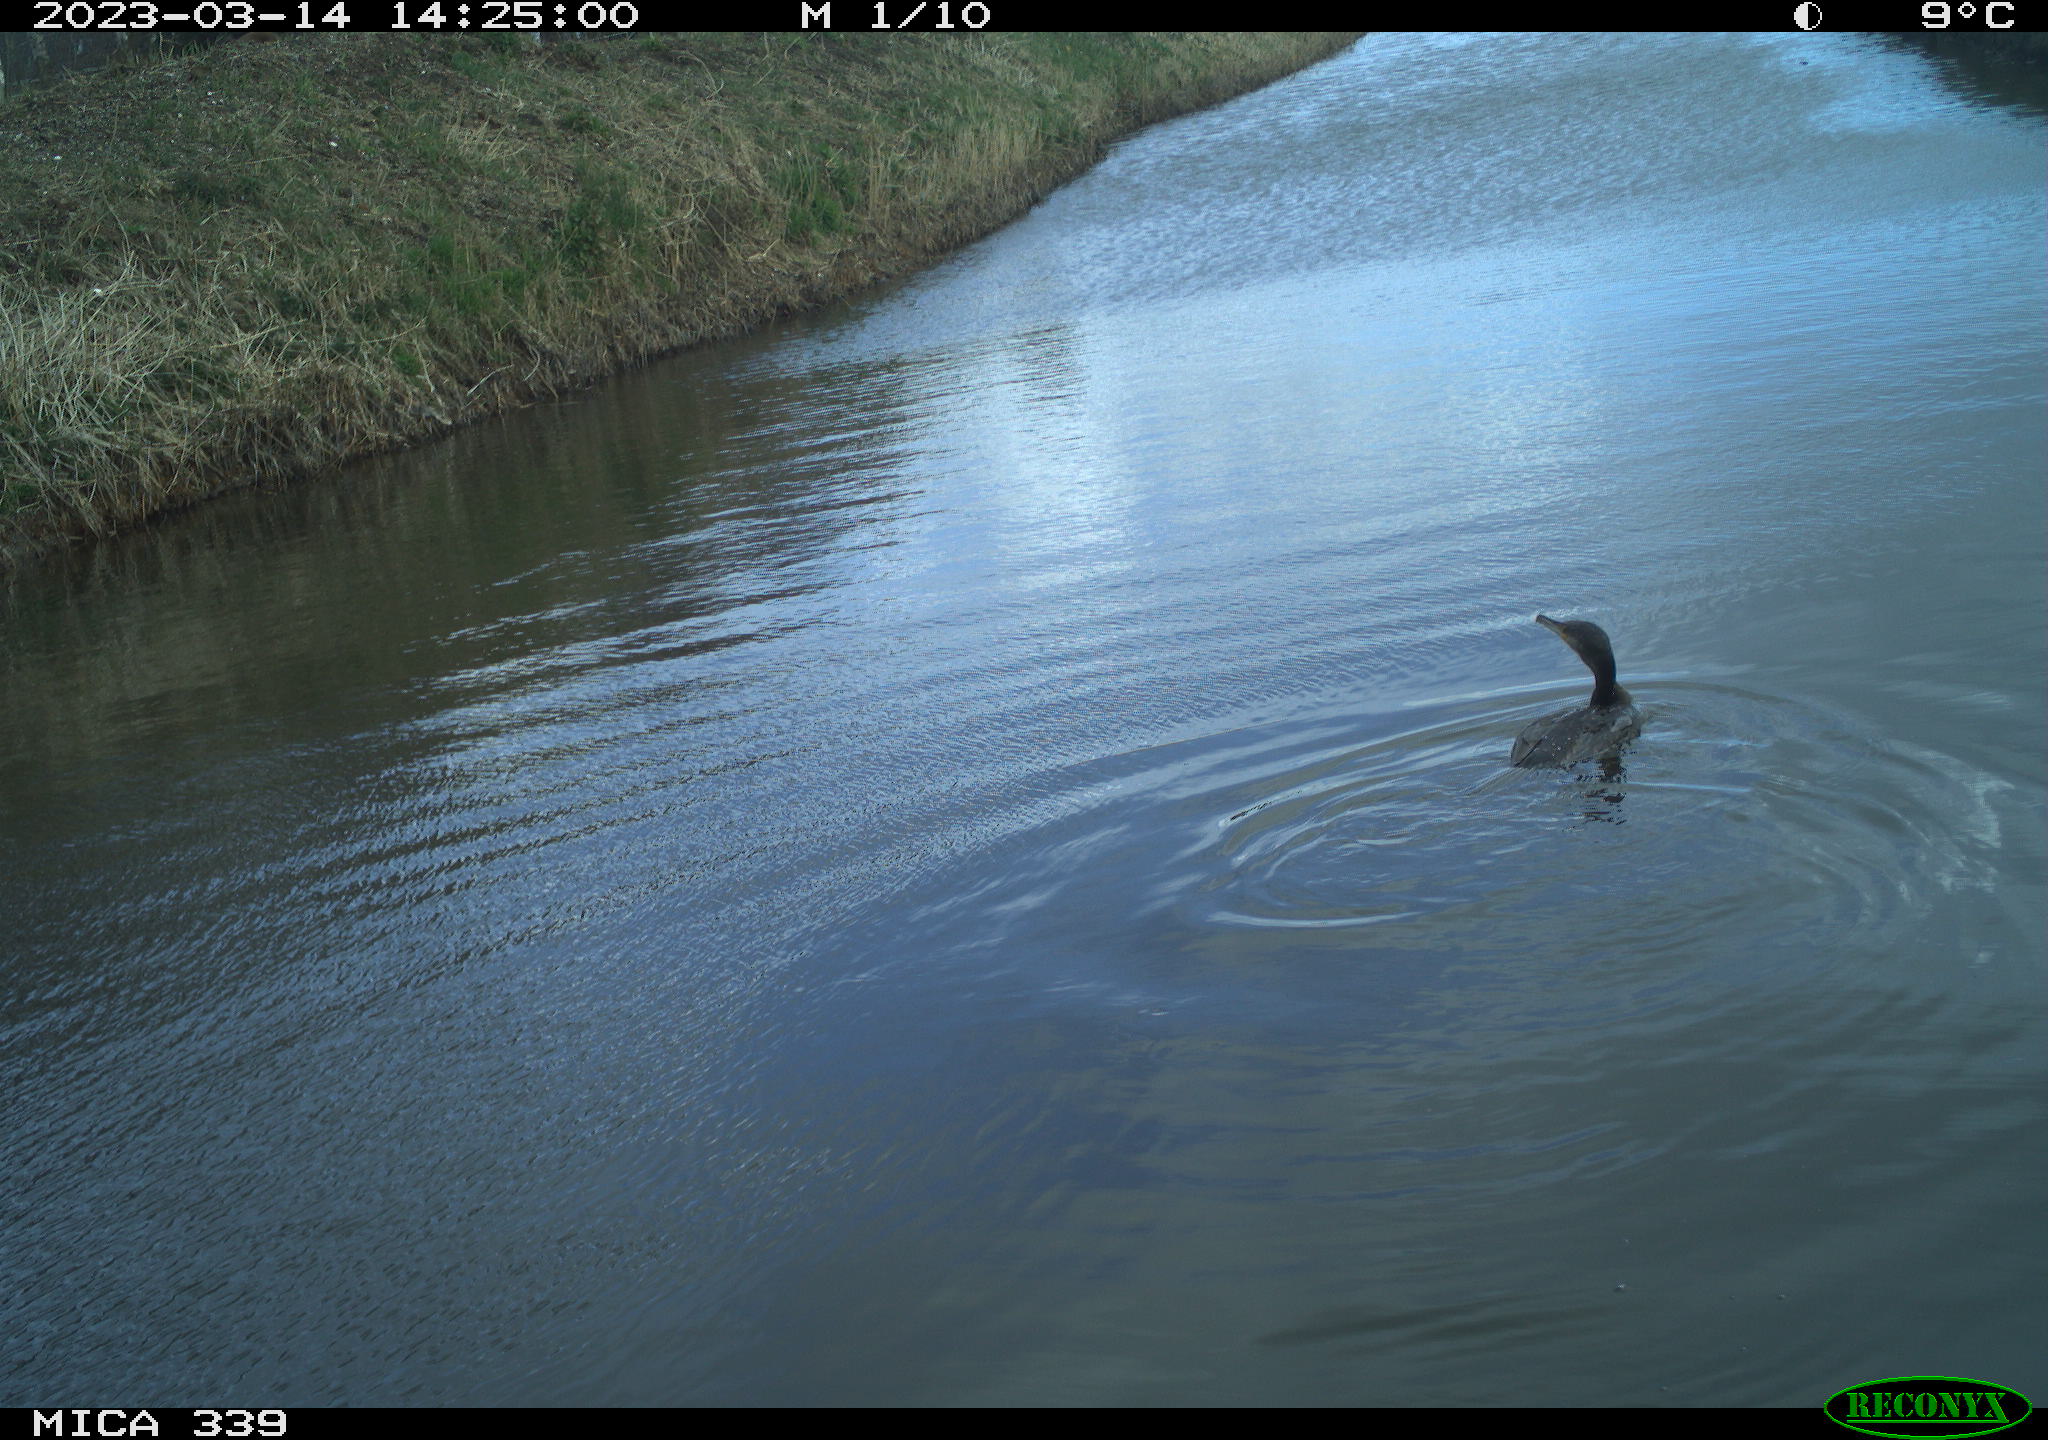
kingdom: Animalia
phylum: Chordata
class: Aves
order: Anseriformes
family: Anatidae
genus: Anas
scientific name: Anas
